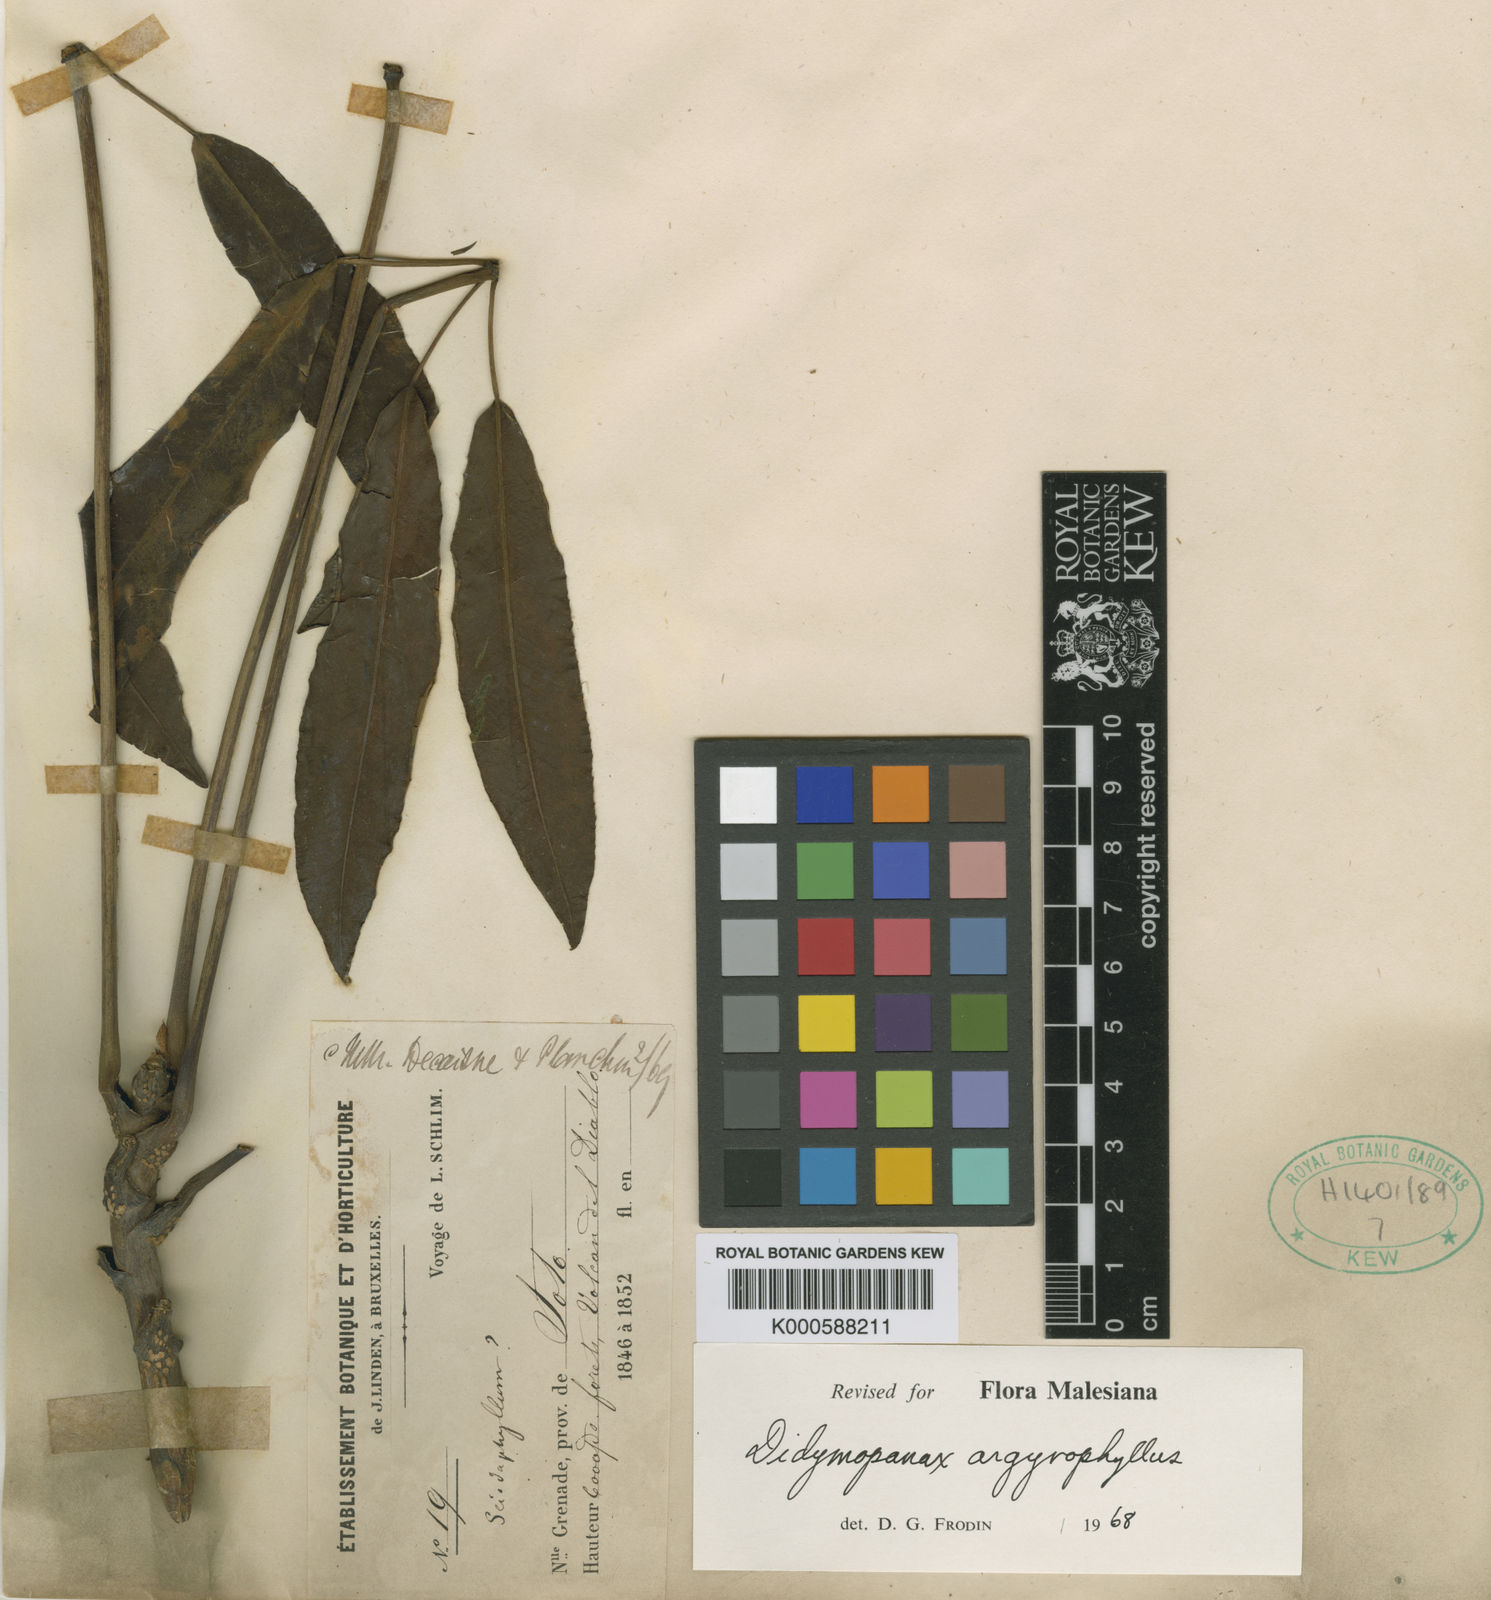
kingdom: Plantae
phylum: Tracheophyta
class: Magnoliopsida
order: Apiales
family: Araliaceae
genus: Schefflera
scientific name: Schefflera
